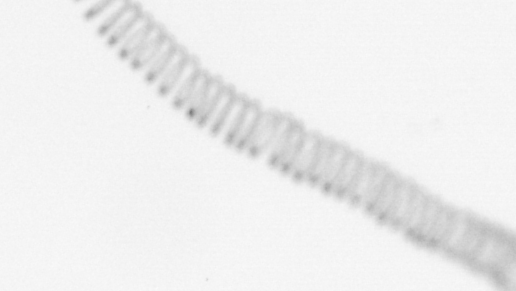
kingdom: Chromista
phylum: Ochrophyta
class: Bacillariophyceae
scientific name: Bacillariophyceae
